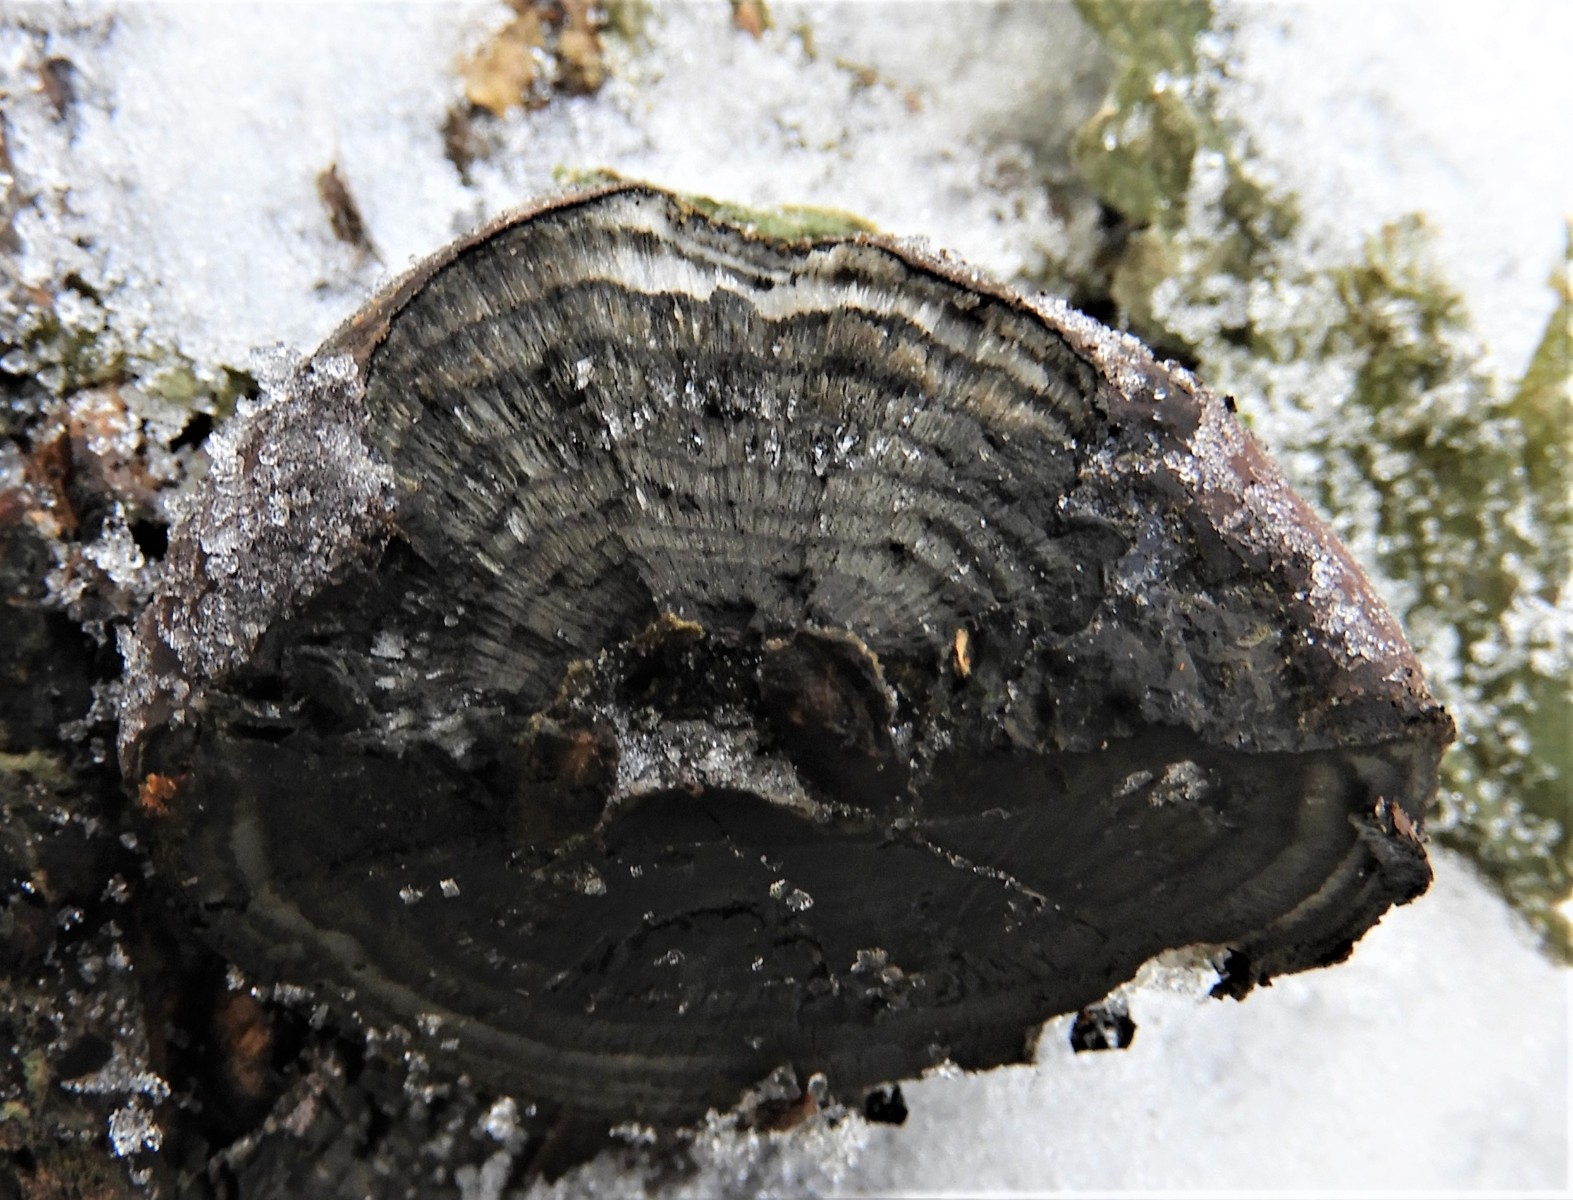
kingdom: Fungi
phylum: Ascomycota
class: Sordariomycetes
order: Xylariales
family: Hypoxylaceae
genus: Daldinia
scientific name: Daldinia concentrica
